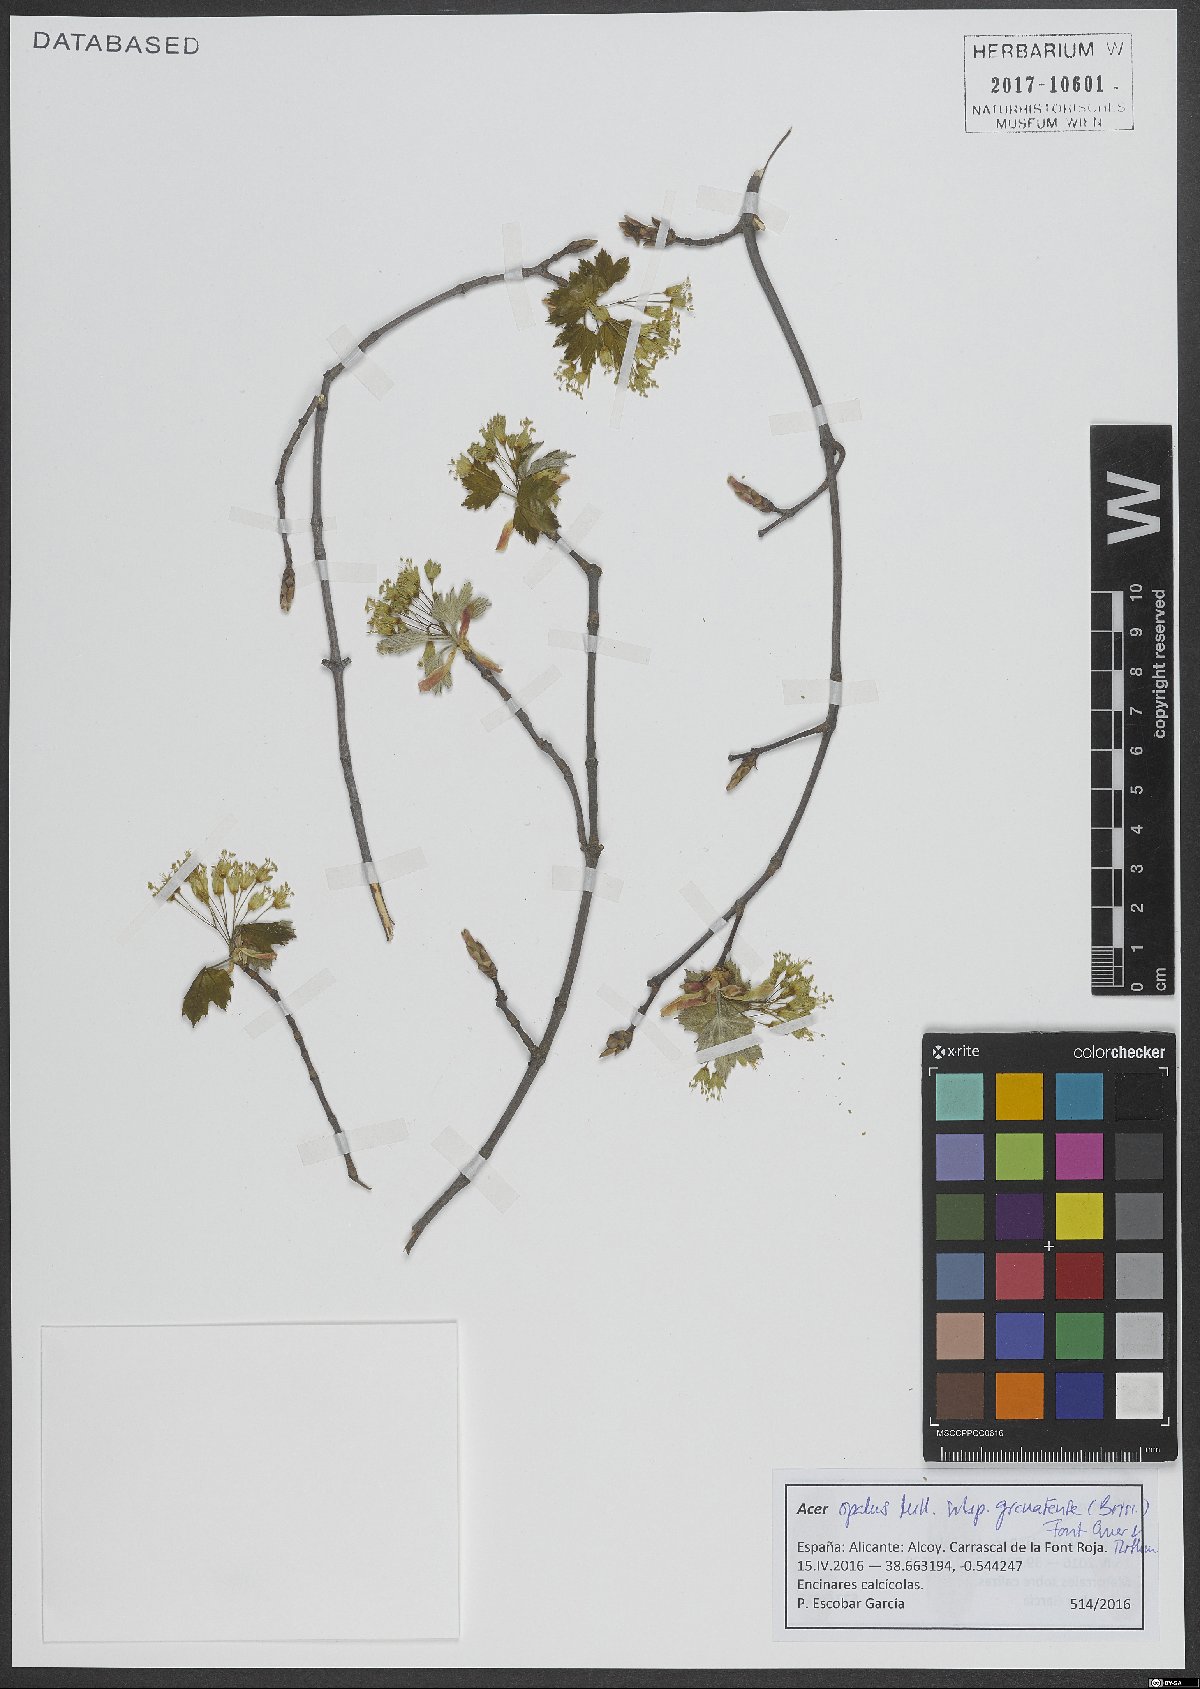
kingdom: Plantae
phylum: Tracheophyta
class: Magnoliopsida
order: Sapindales
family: Sapindaceae
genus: Acer
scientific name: Acer granatense
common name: Spanish maple
